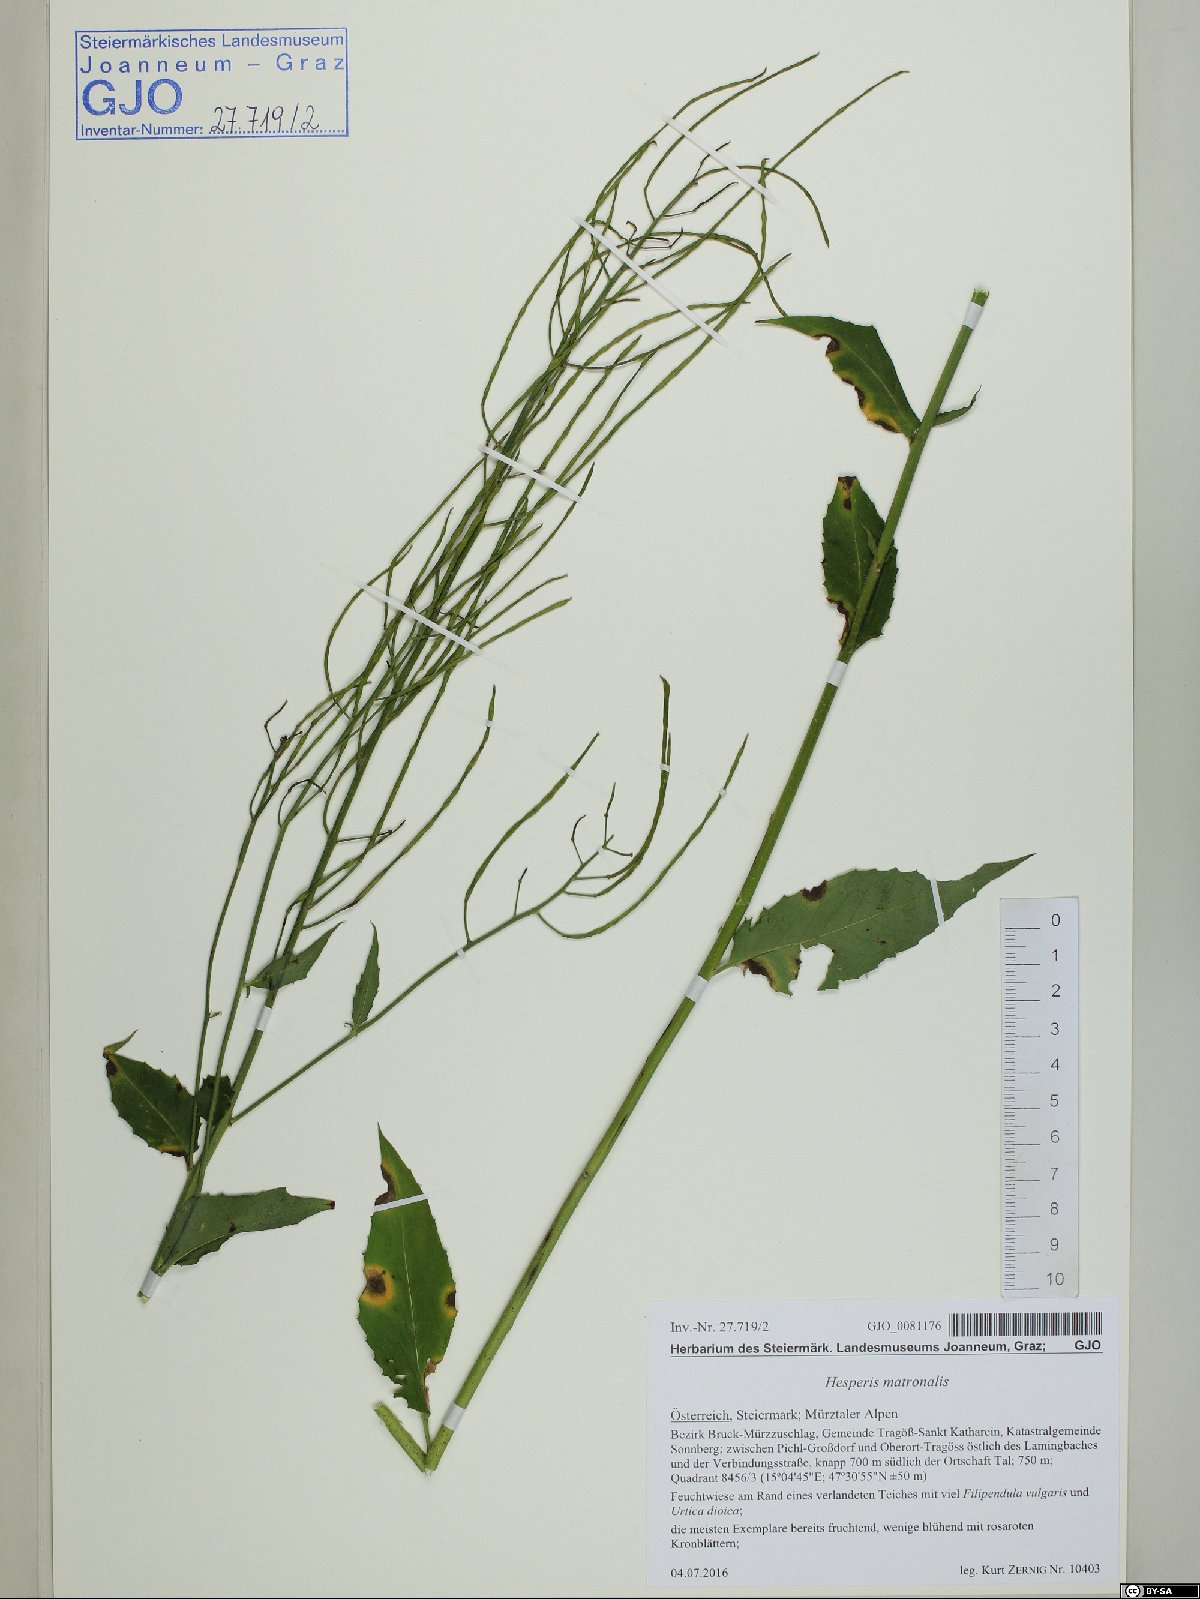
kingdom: Plantae
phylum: Tracheophyta
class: Magnoliopsida
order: Brassicales
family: Brassicaceae
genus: Hesperis
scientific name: Hesperis matronalis
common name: Dame's-violet
